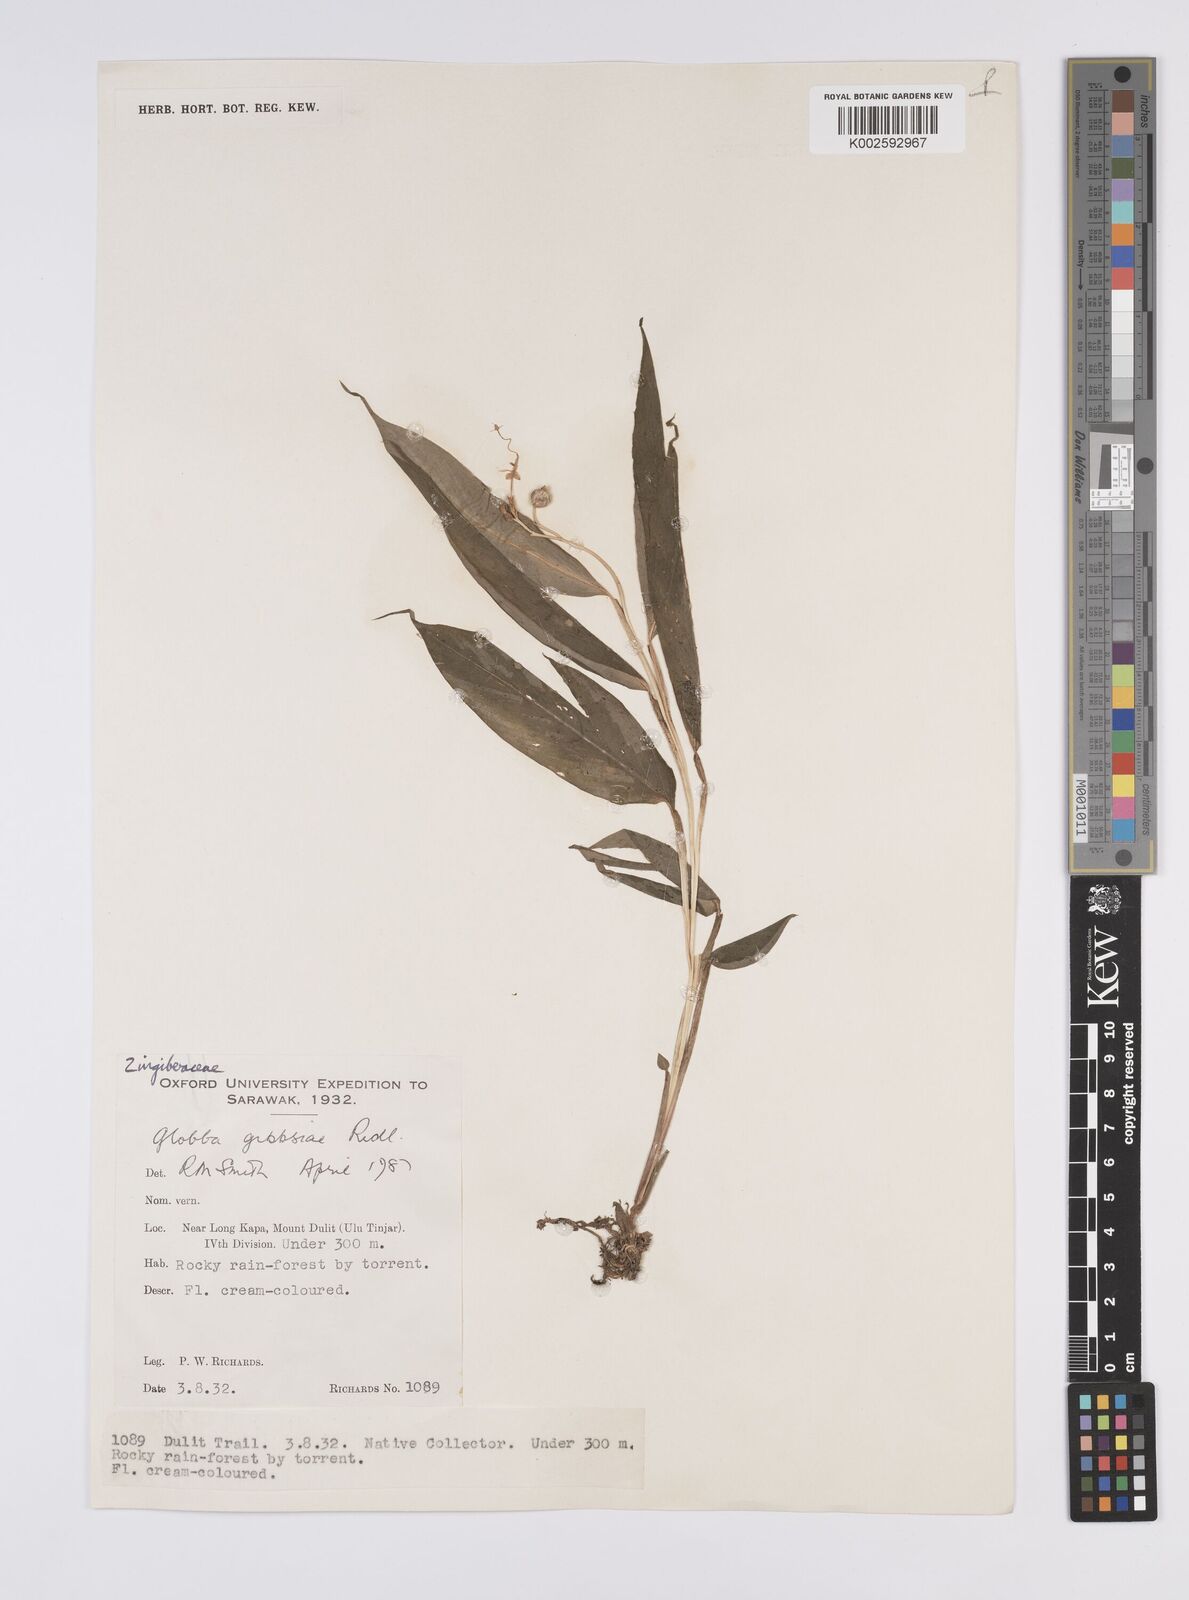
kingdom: Plantae
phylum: Tracheophyta
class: Liliopsida
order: Zingiberales
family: Zingiberaceae
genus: Globba
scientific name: Globba tricolor
